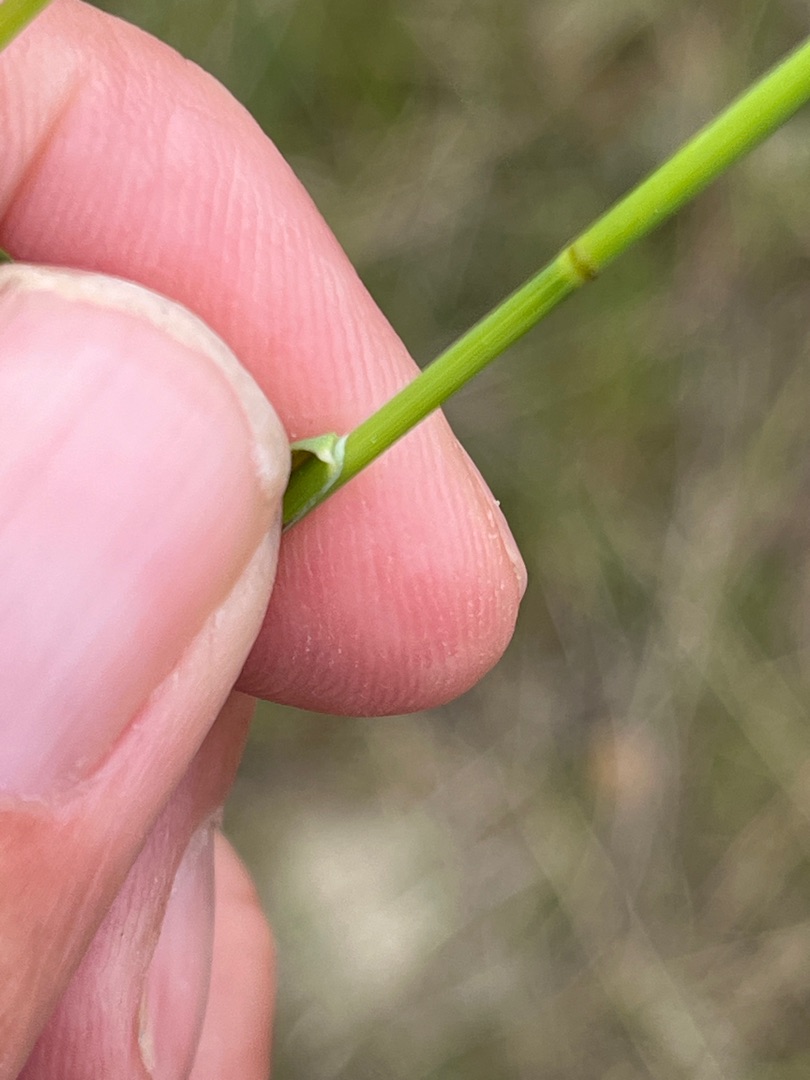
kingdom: Plantae
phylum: Tracheophyta
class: Liliopsida
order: Poales
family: Poaceae
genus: Poa
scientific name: Poa compressa
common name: Fladstrået rapgræs
